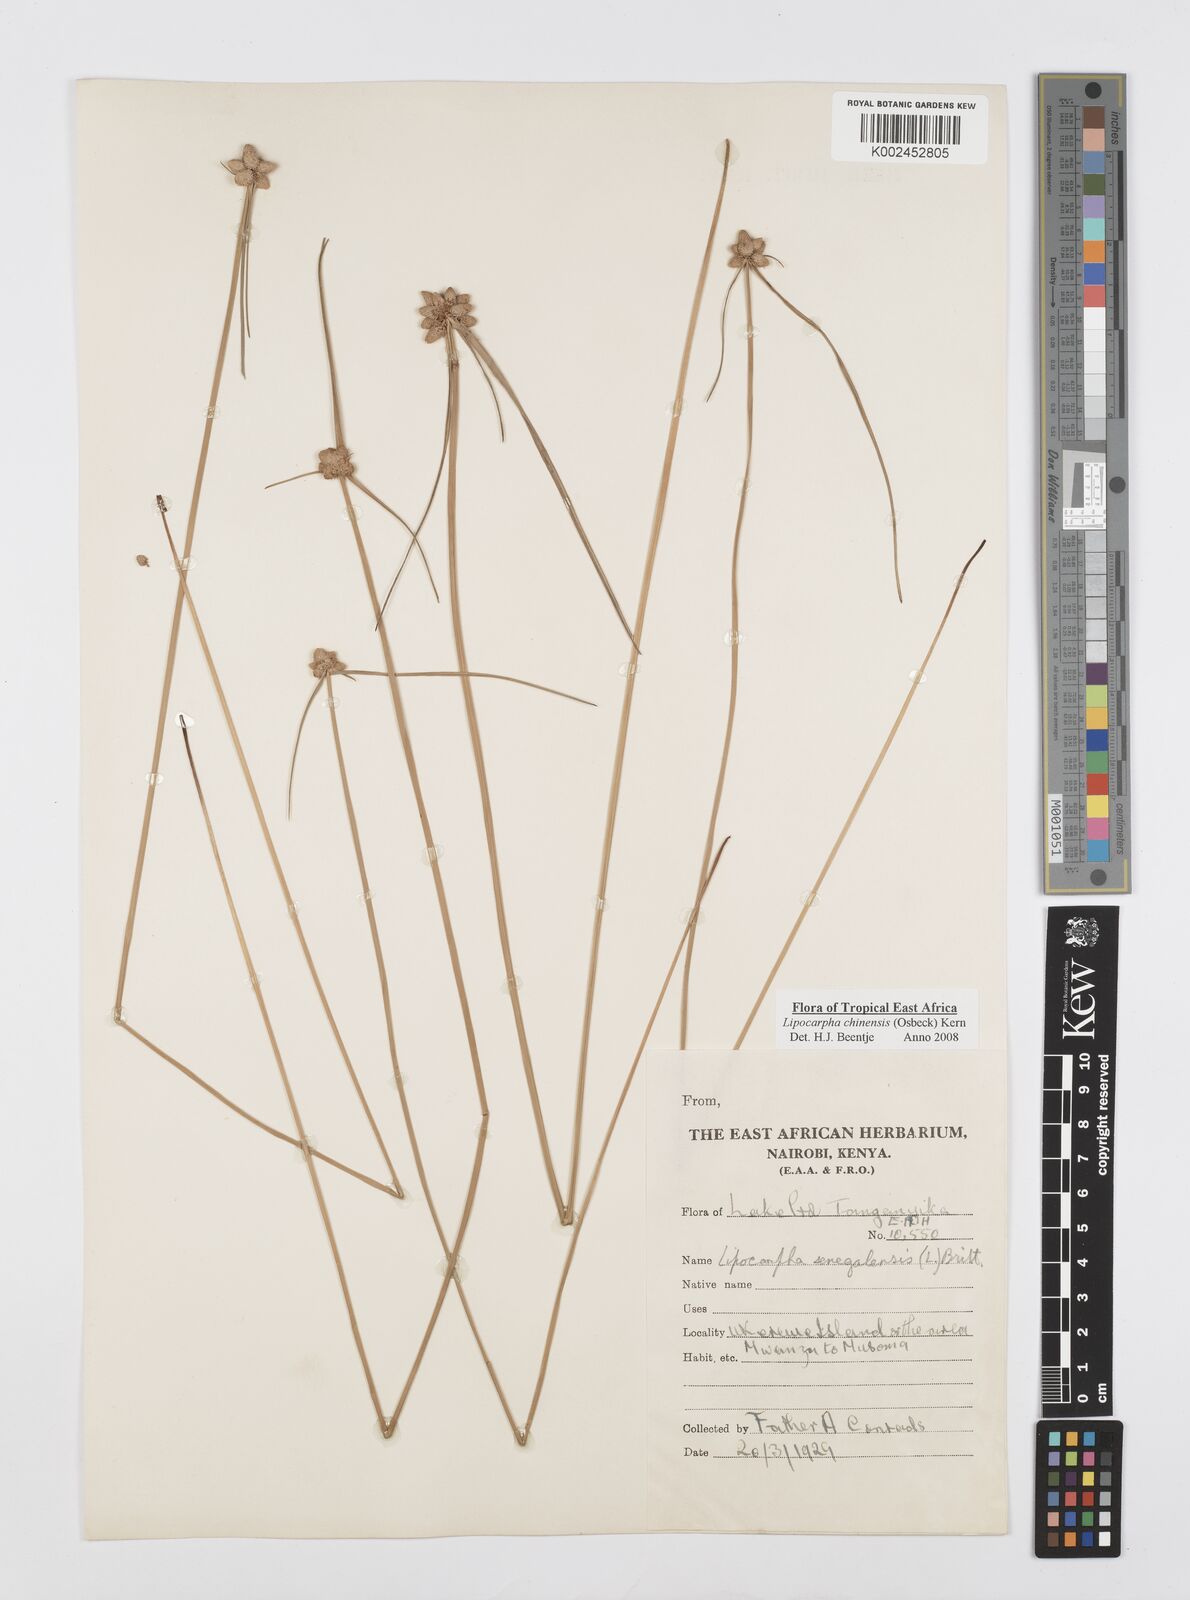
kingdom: Plantae
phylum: Tracheophyta
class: Liliopsida
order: Poales
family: Cyperaceae
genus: Cyperus
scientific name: Cyperus albescens
